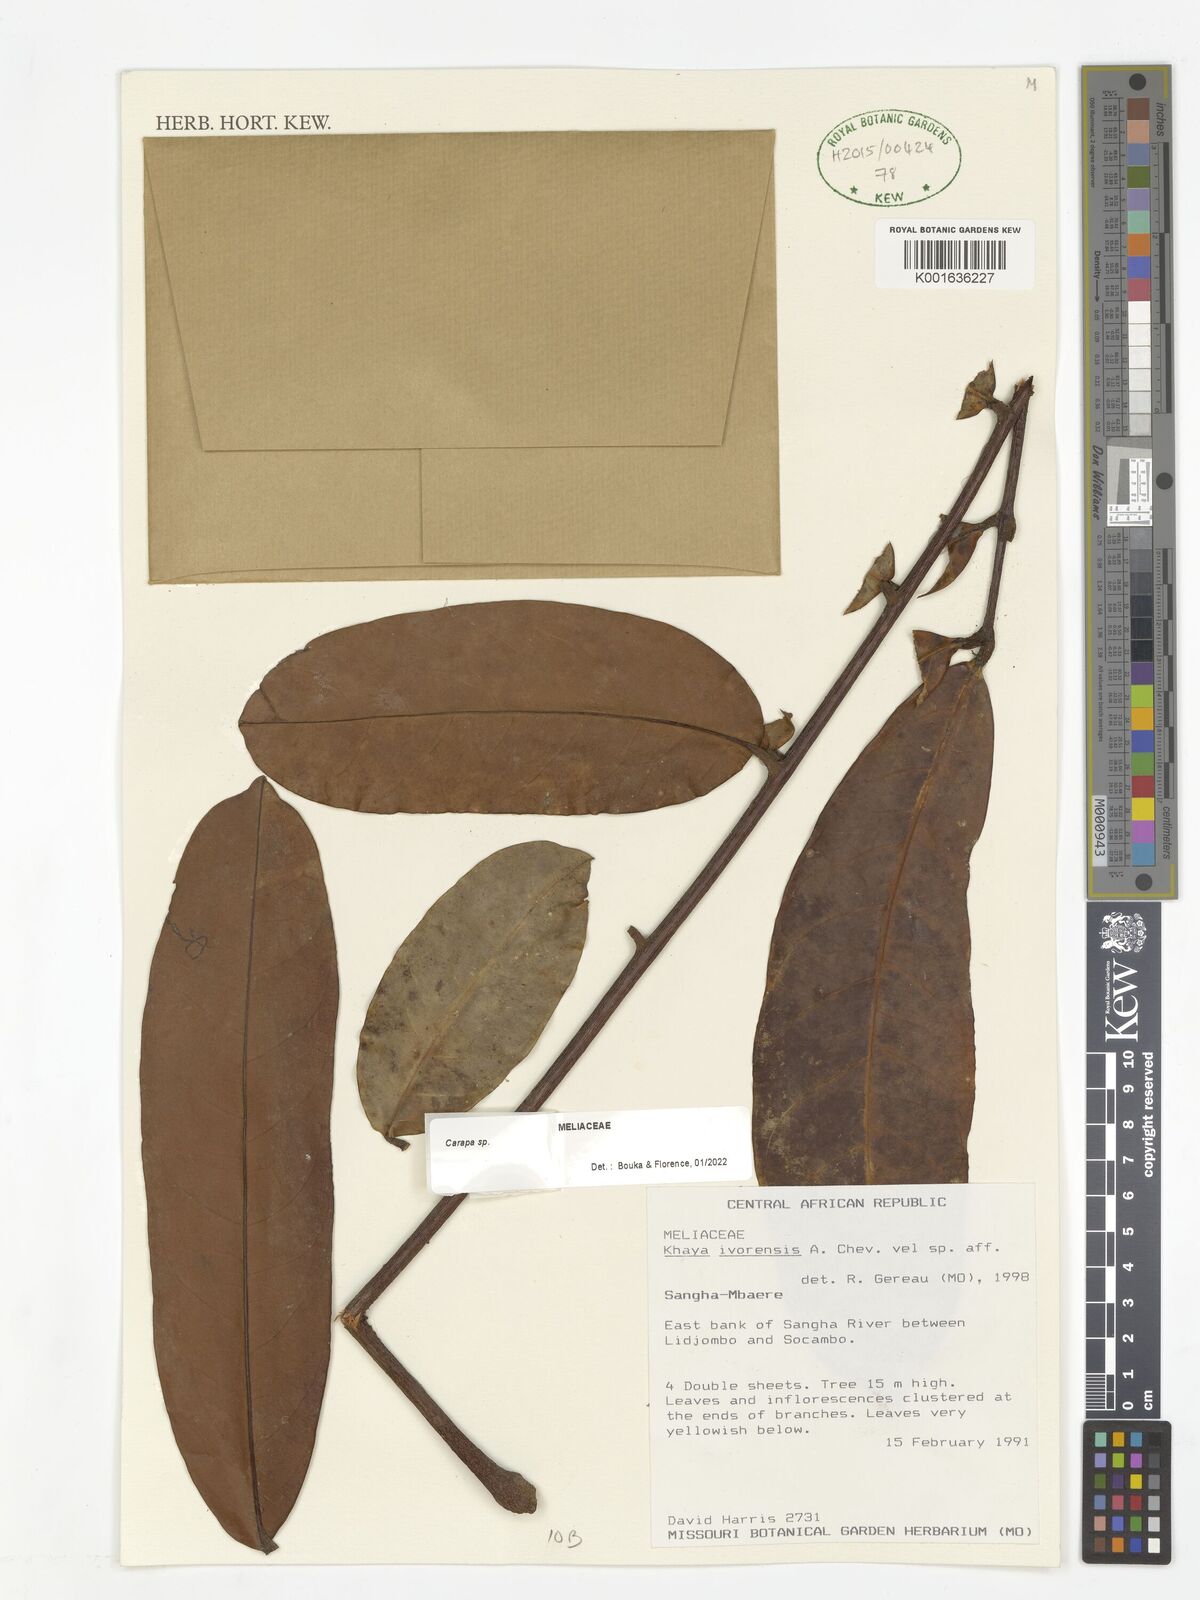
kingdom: Plantae
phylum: Tracheophyta
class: Magnoliopsida
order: Sapindales
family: Meliaceae
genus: Carapa
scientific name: Carapa
